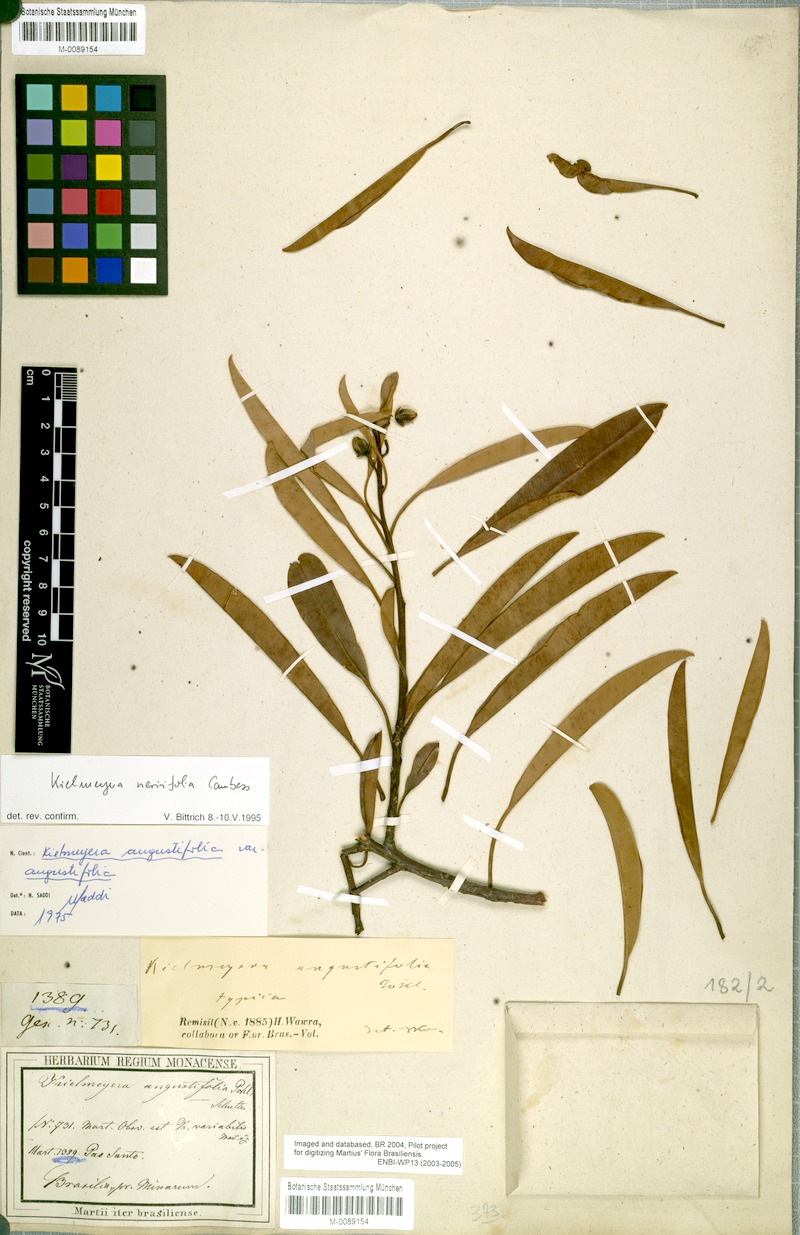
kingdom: Plantae
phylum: Tracheophyta
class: Magnoliopsida
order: Malpighiales
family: Calophyllaceae
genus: Kielmeyera
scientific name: Kielmeyera neriifolia
